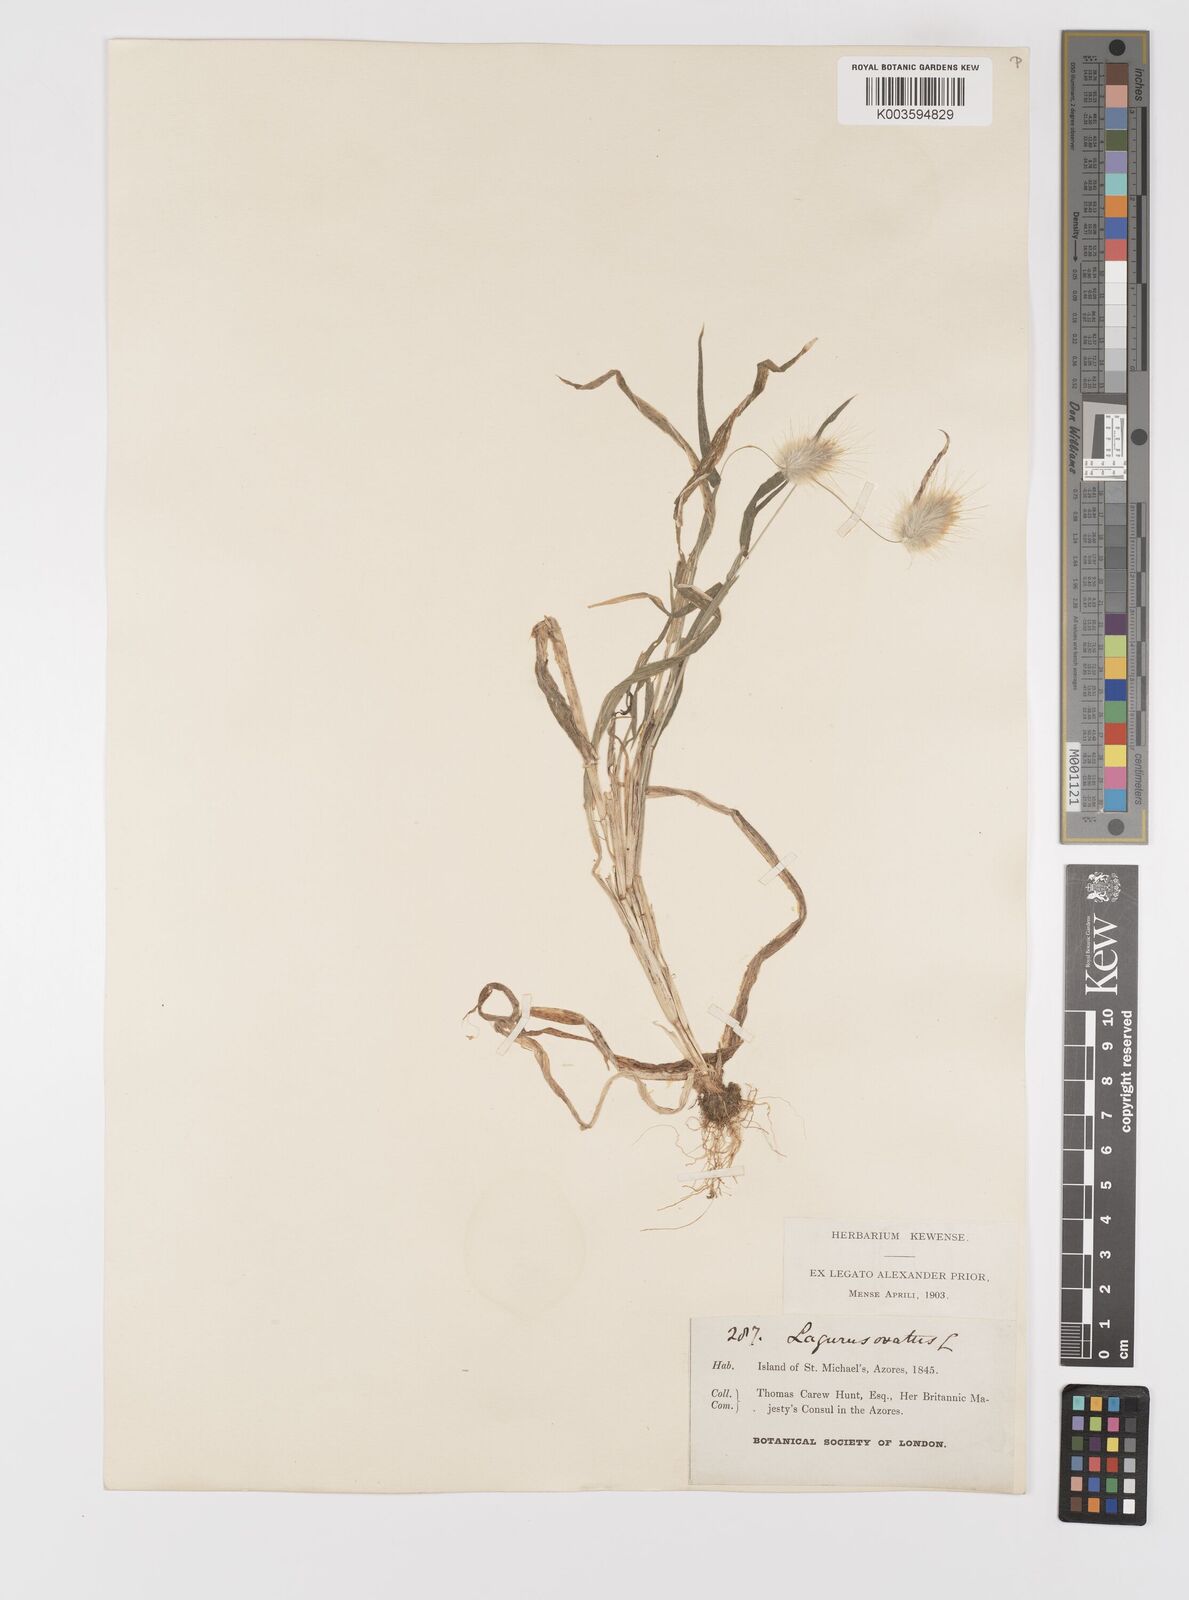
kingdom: Plantae
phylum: Tracheophyta
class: Liliopsida
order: Poales
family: Poaceae
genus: Lagurus
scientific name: Lagurus ovatus
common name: Hare's-tail
